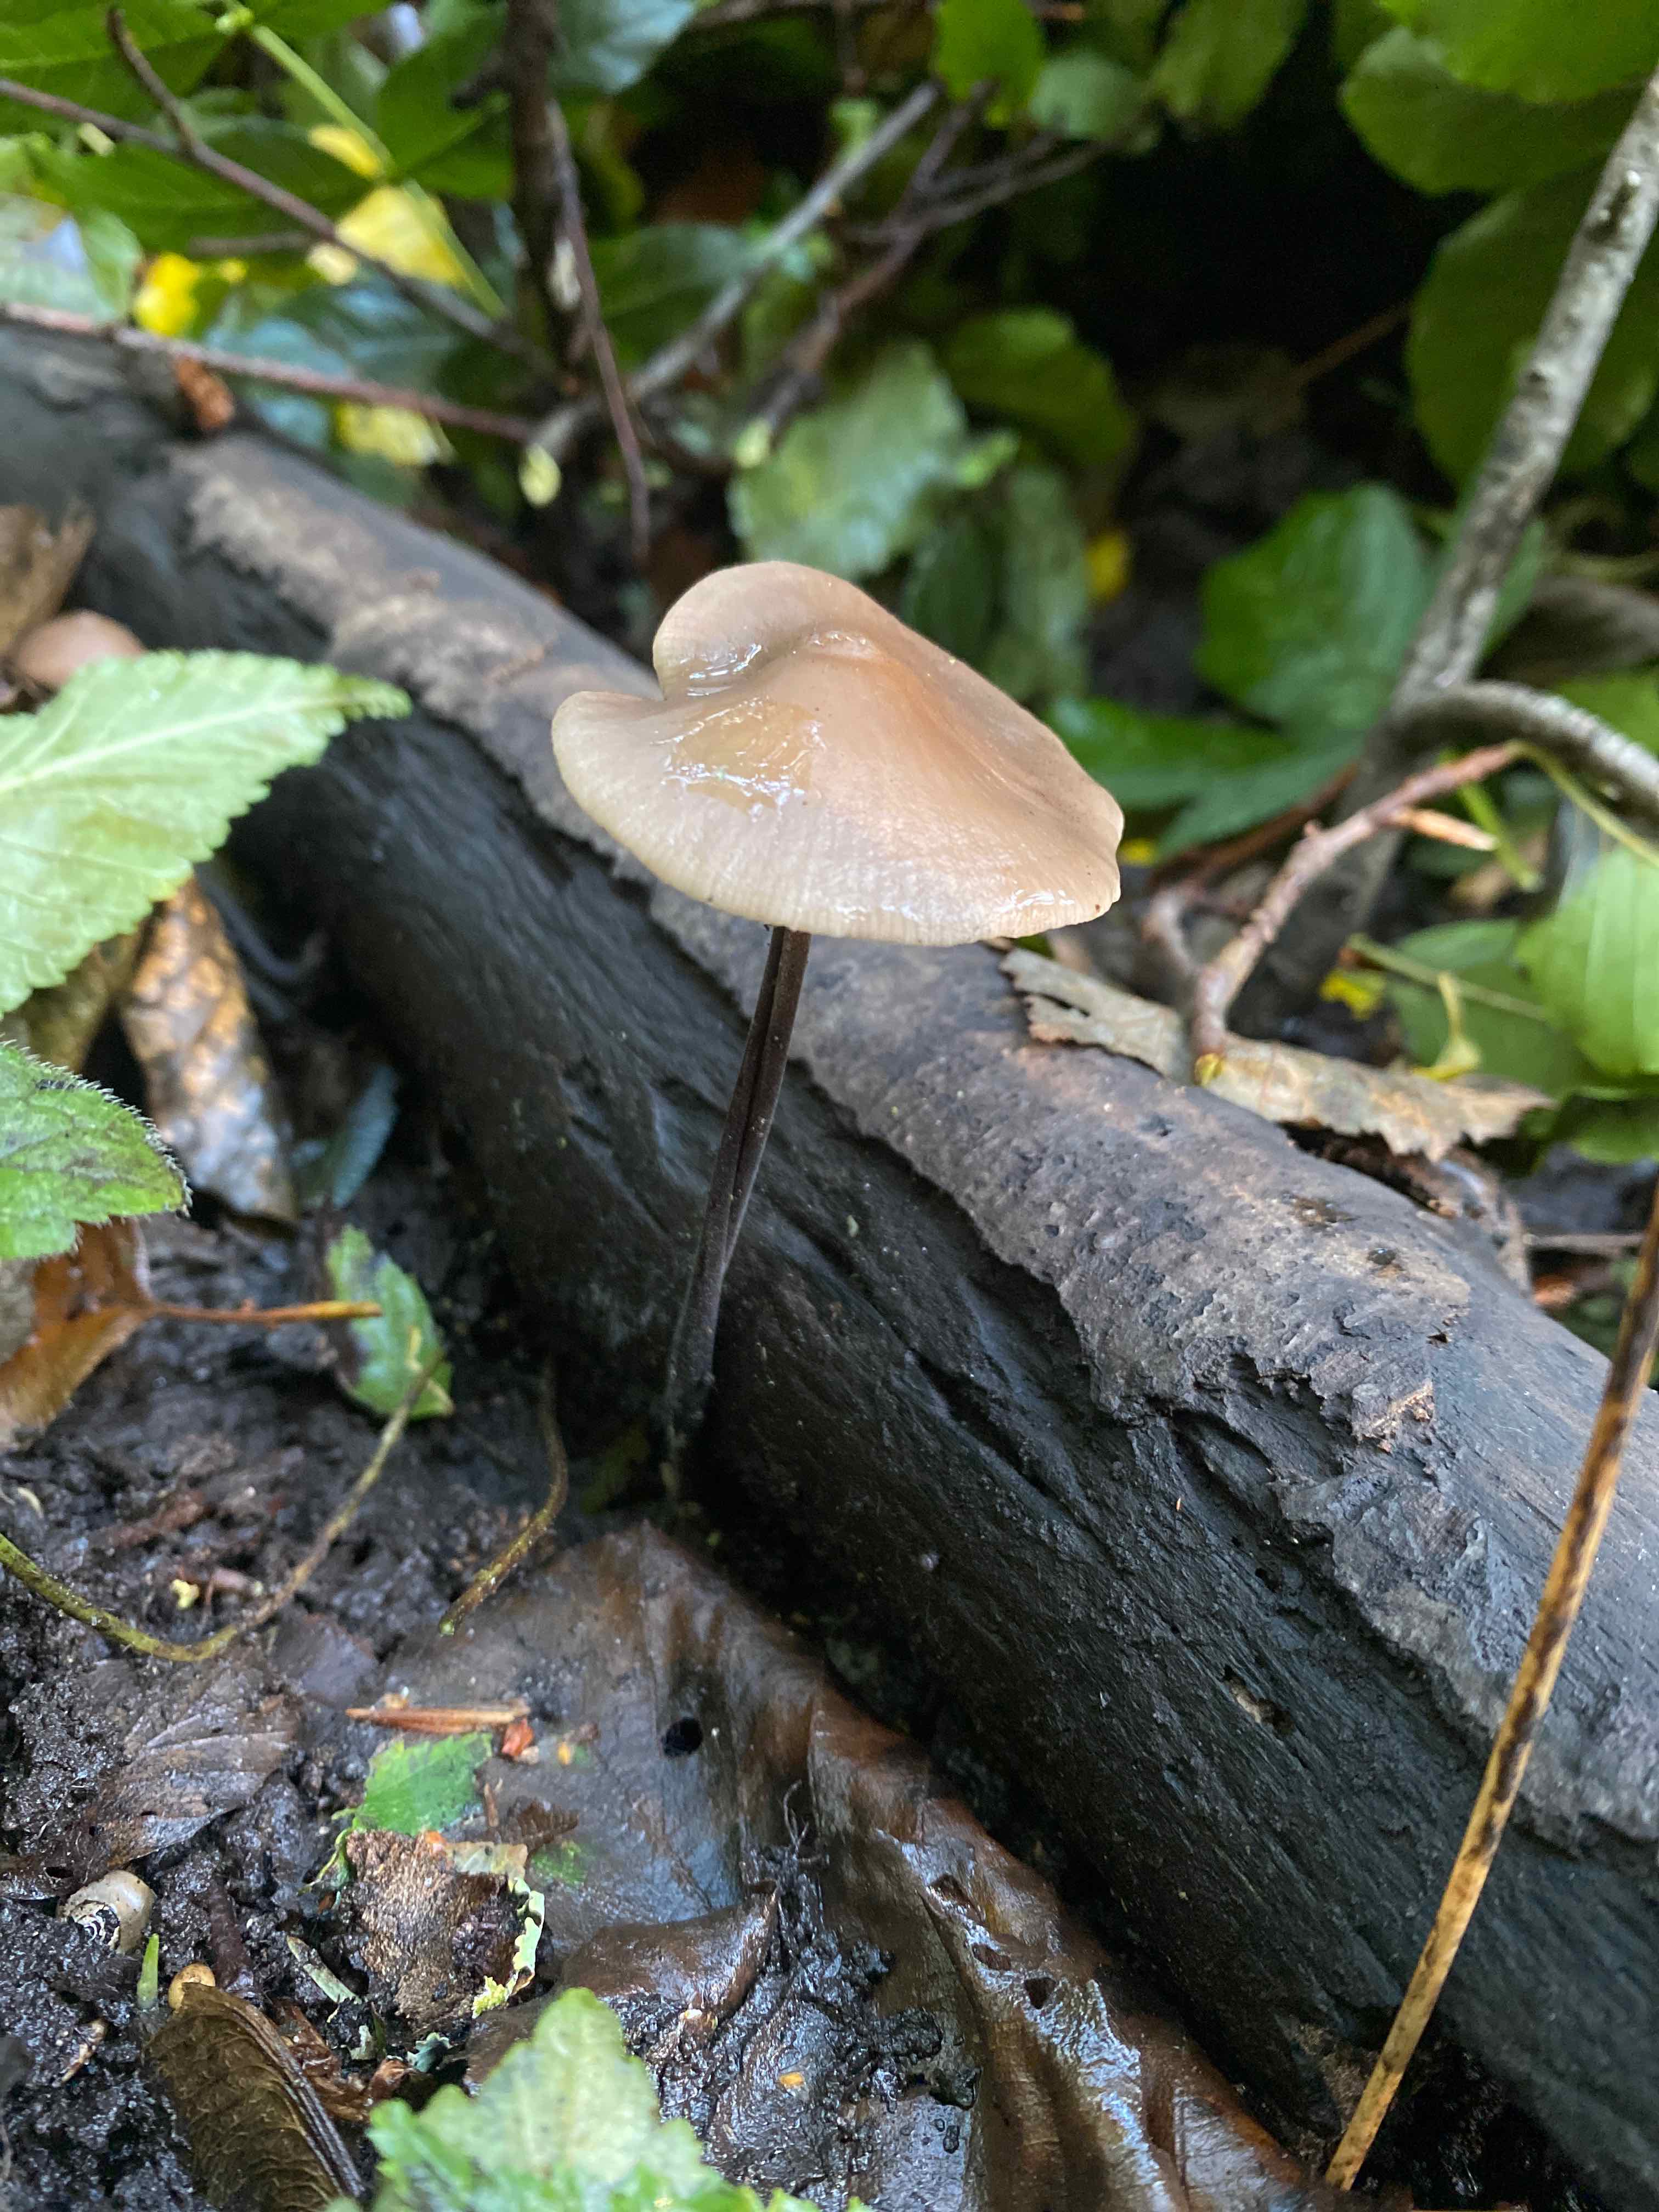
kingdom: Fungi
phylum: Basidiomycota
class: Agaricomycetes
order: Agaricales
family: Omphalotaceae
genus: Mycetinis
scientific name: Mycetinis alliaceus
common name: stor løghat
